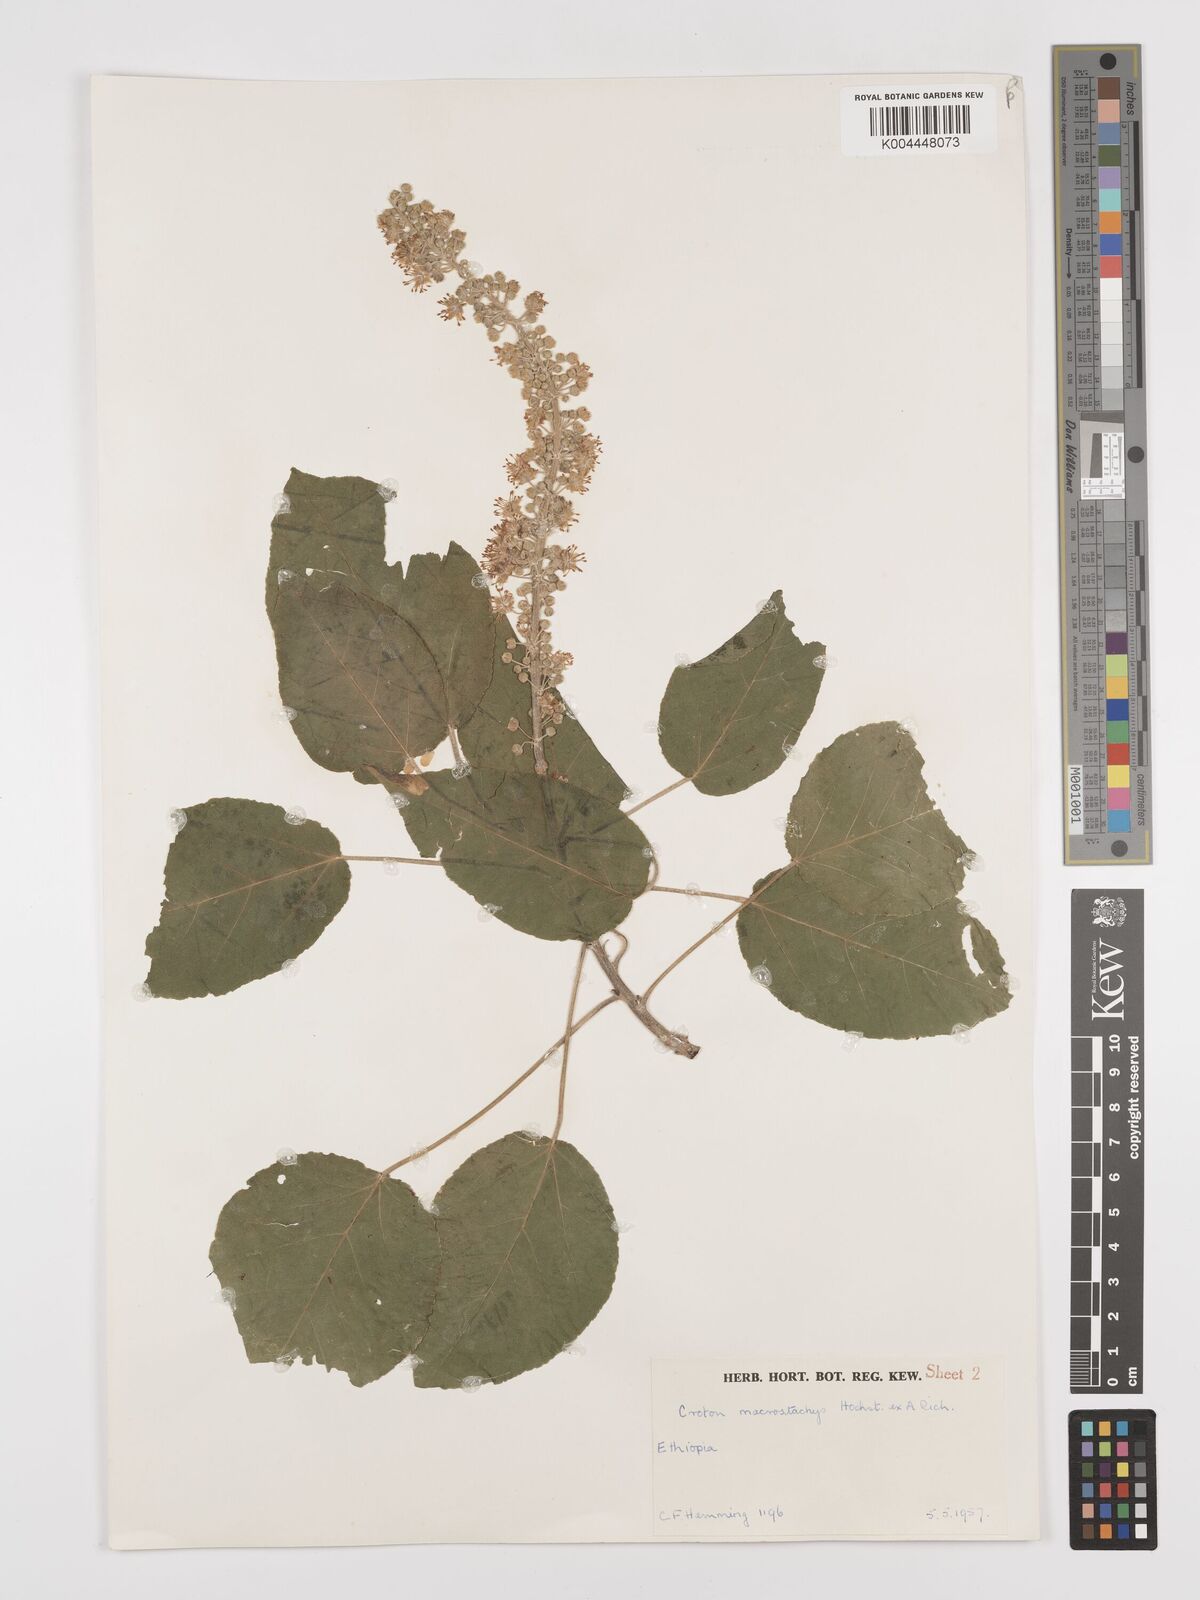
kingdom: Plantae
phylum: Tracheophyta
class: Magnoliopsida
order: Malpighiales
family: Euphorbiaceae
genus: Croton
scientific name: Croton macrostachyus
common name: Mutundu
